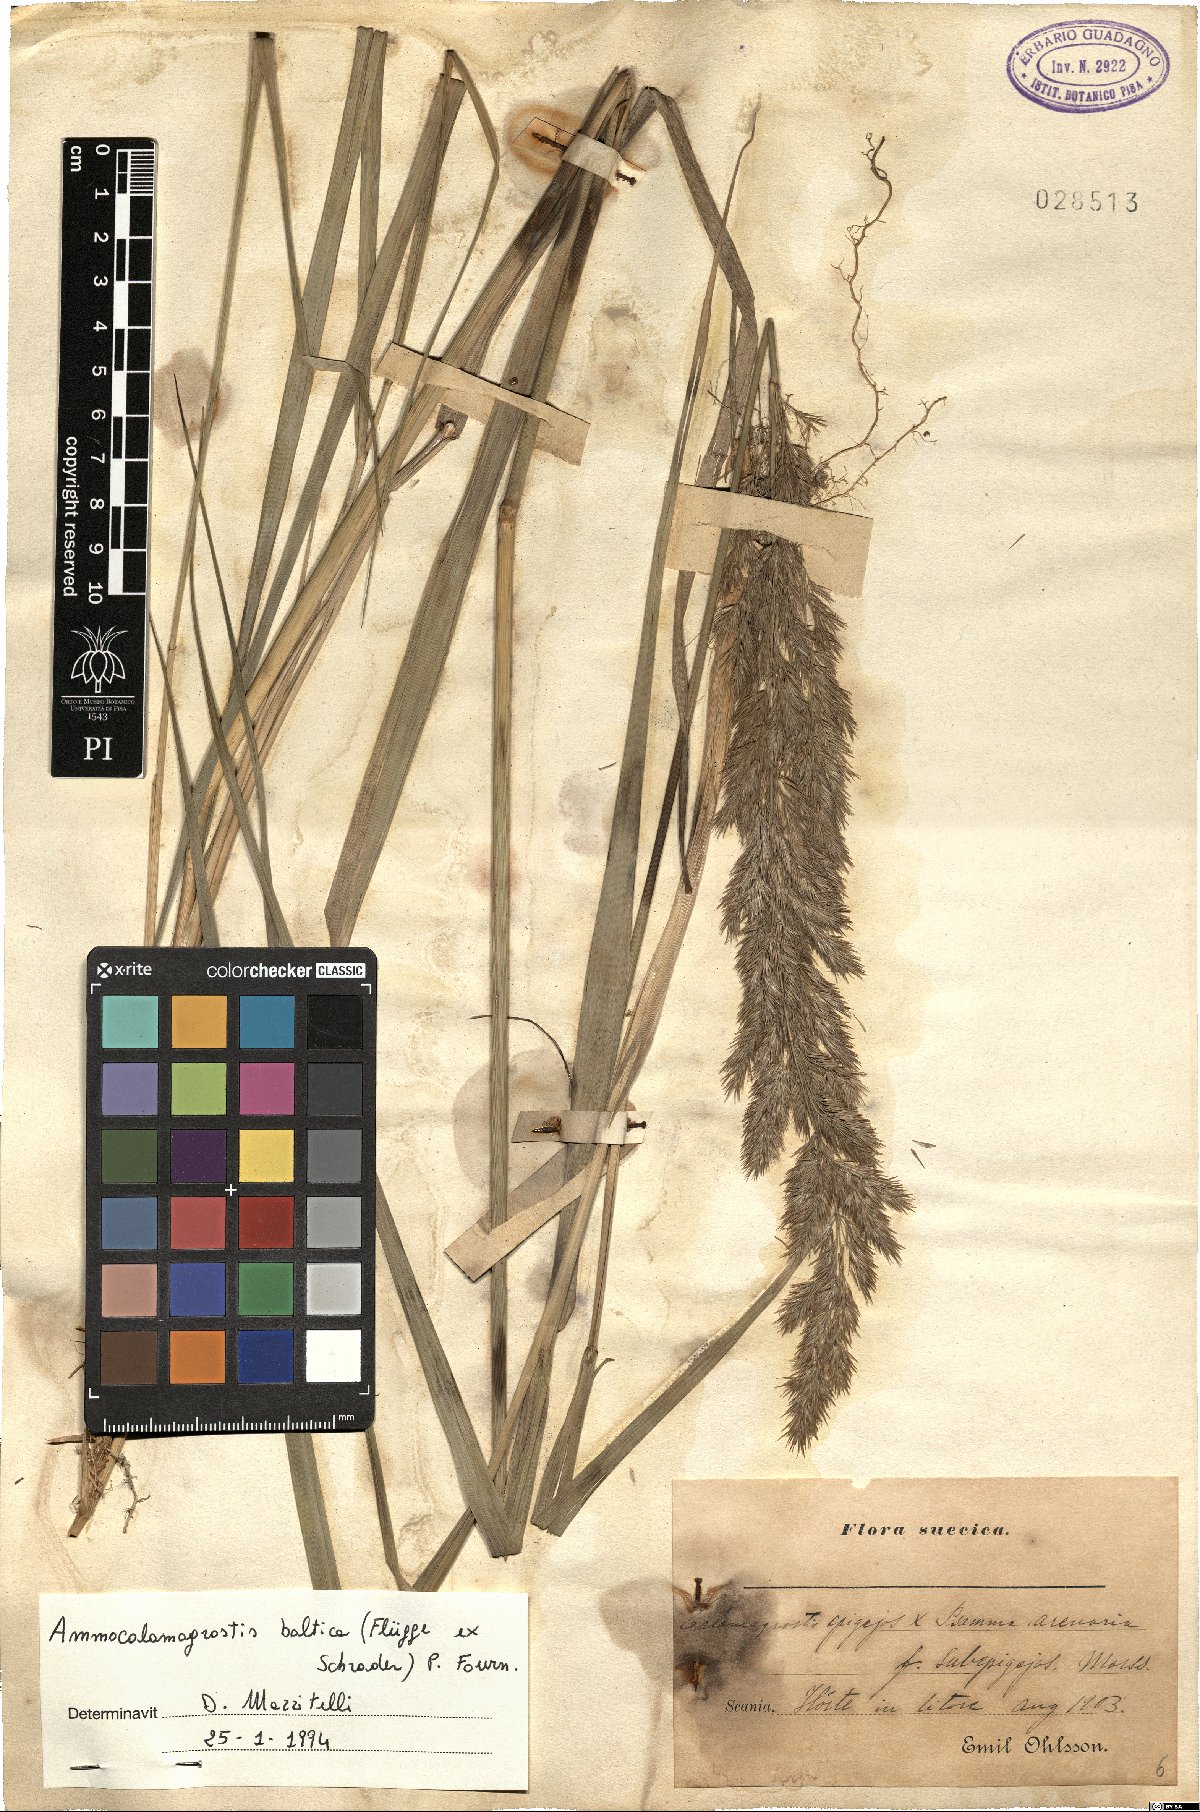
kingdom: Plantae
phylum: Tracheophyta
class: Liliopsida
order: Poales
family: Poaceae
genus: Calamagrostis
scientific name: Calamagrostis baltica
